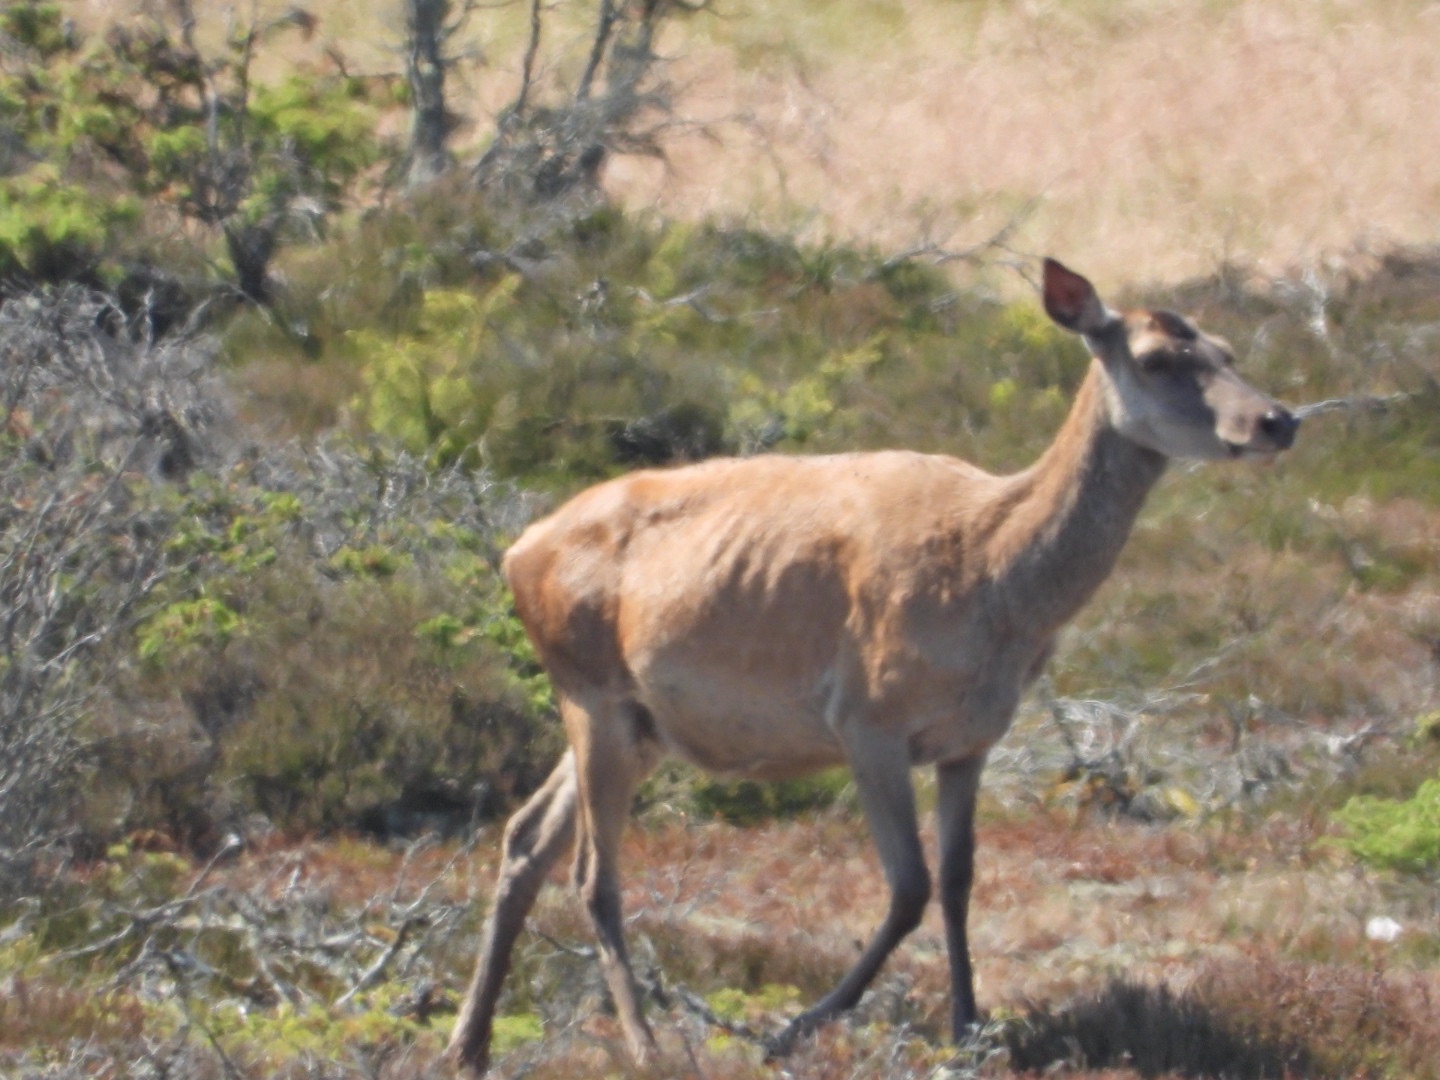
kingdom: Animalia
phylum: Chordata
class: Mammalia
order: Artiodactyla
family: Cervidae
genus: Cervus
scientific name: Cervus elaphus
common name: Krondyr
